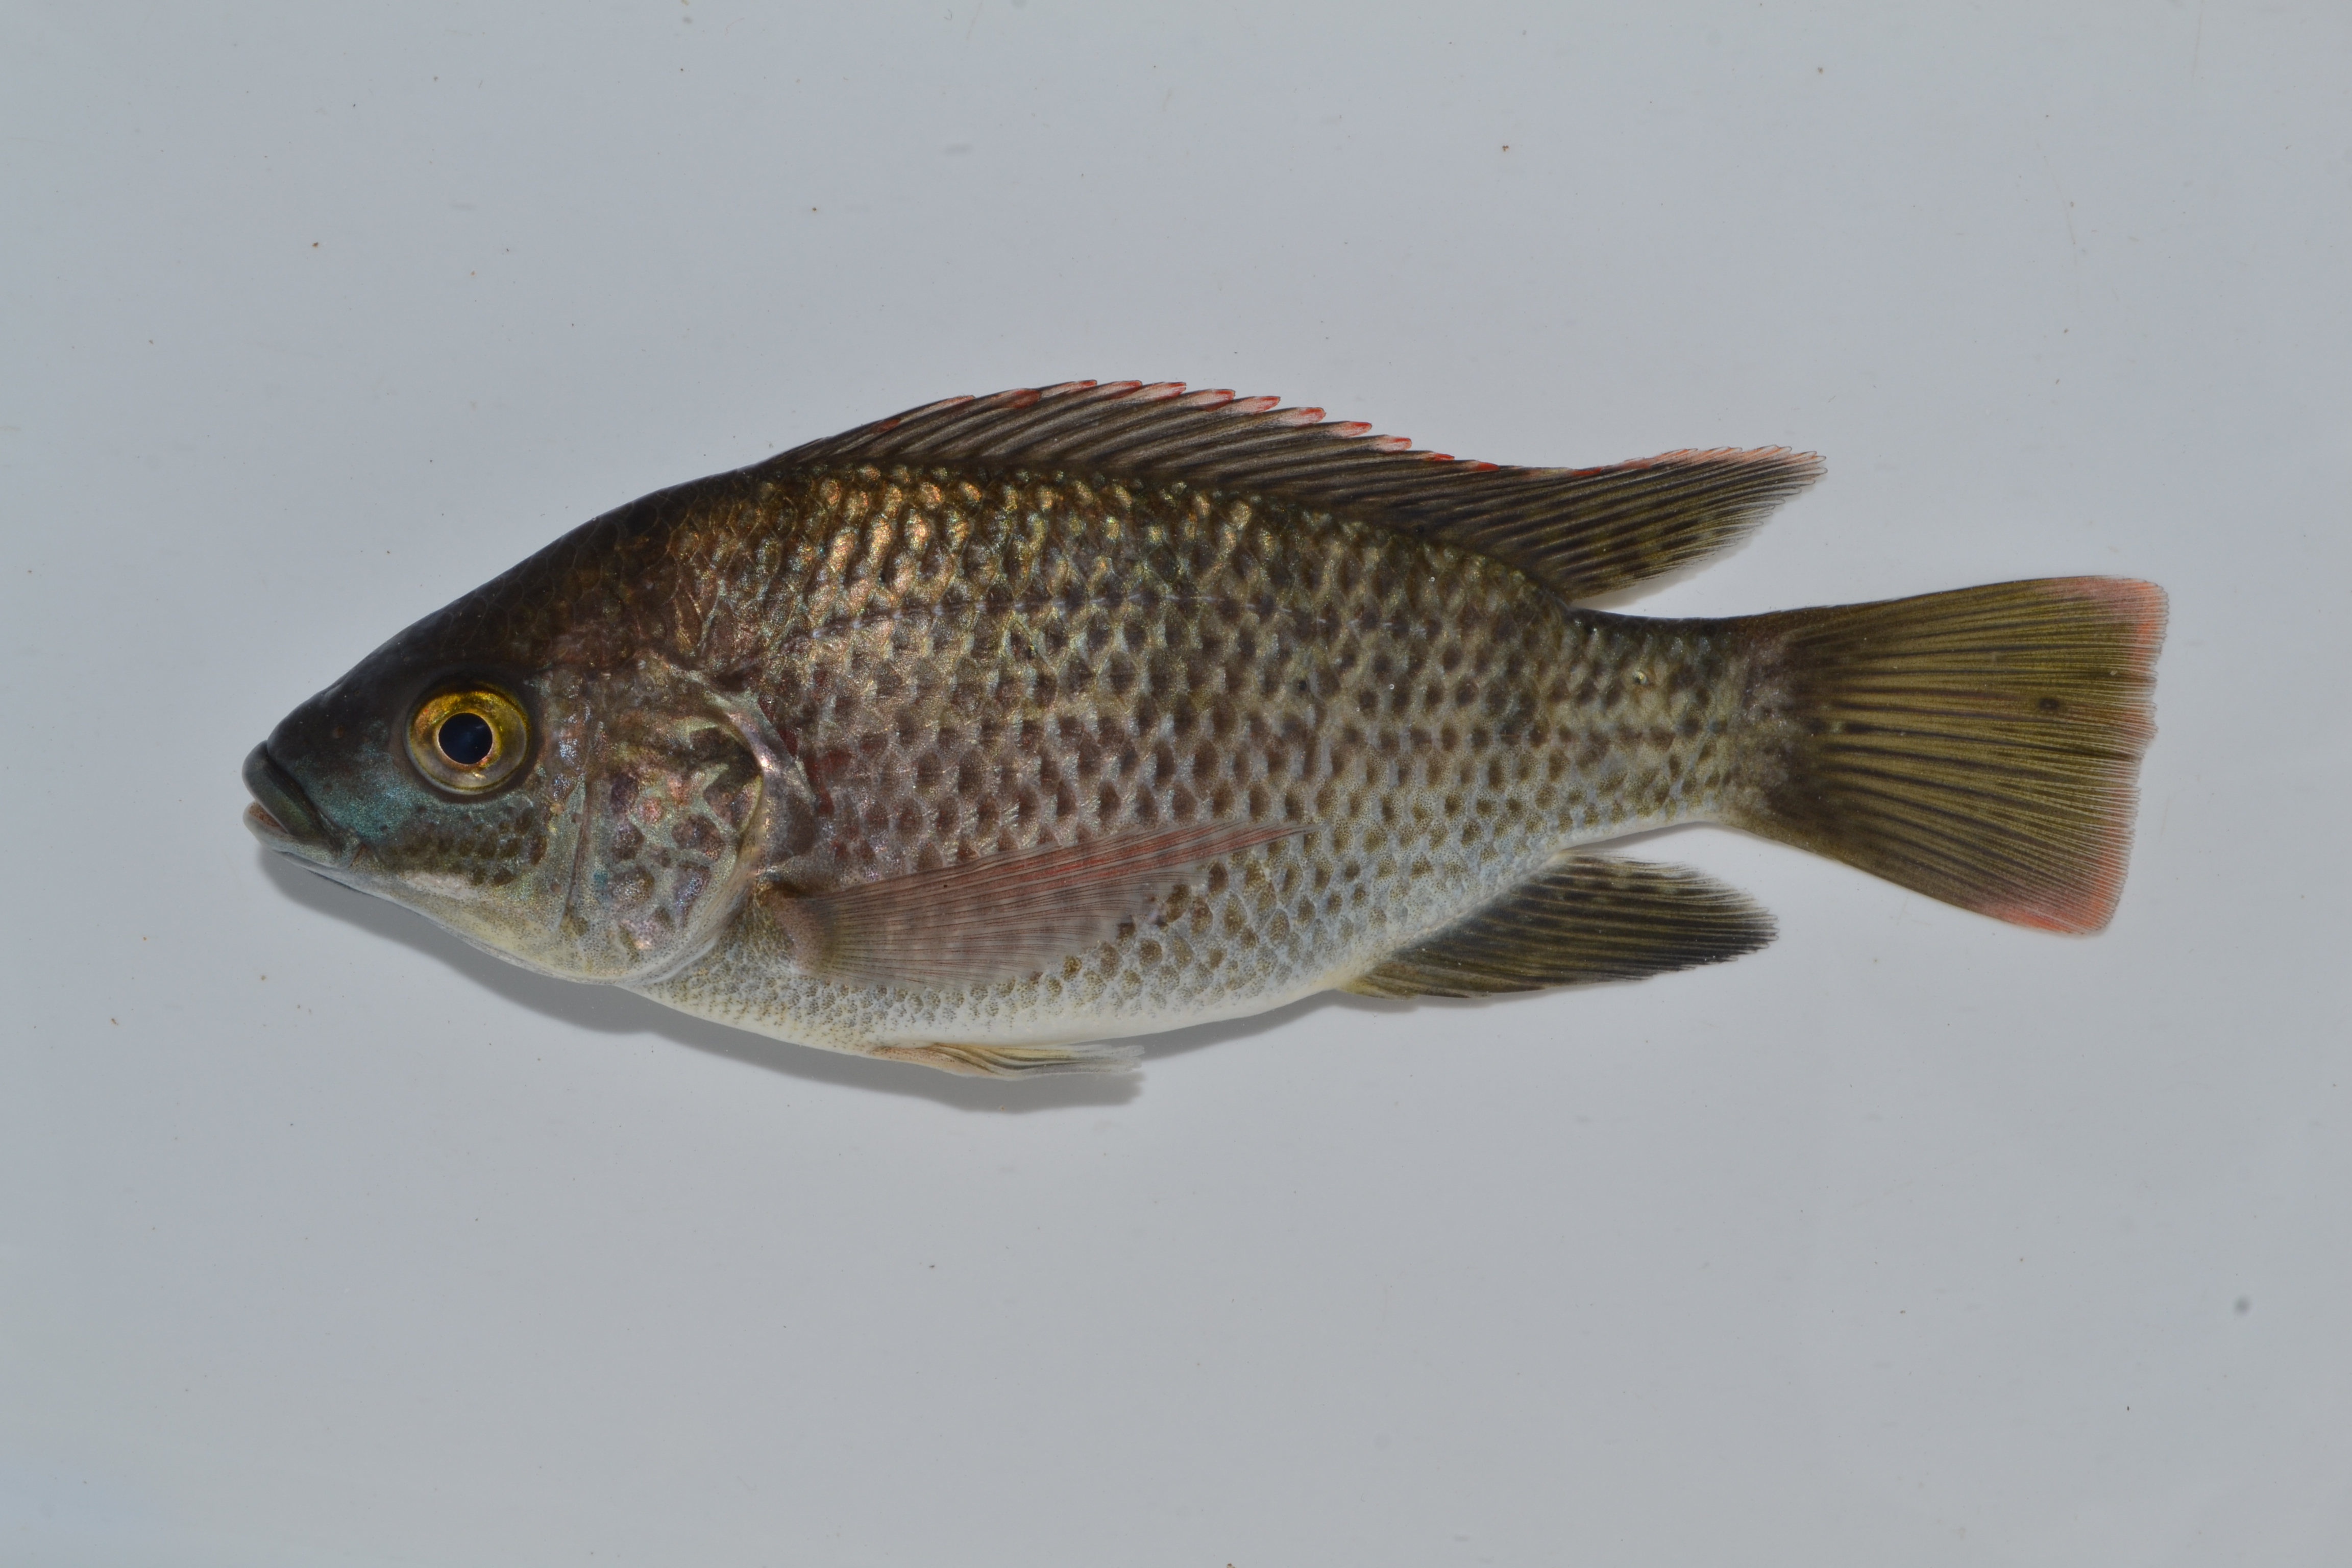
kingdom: Animalia
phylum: Chordata
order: Perciformes
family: Cichlidae
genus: Oreochromis
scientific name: Oreochromis mossambicus
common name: Mozambique tilapia
